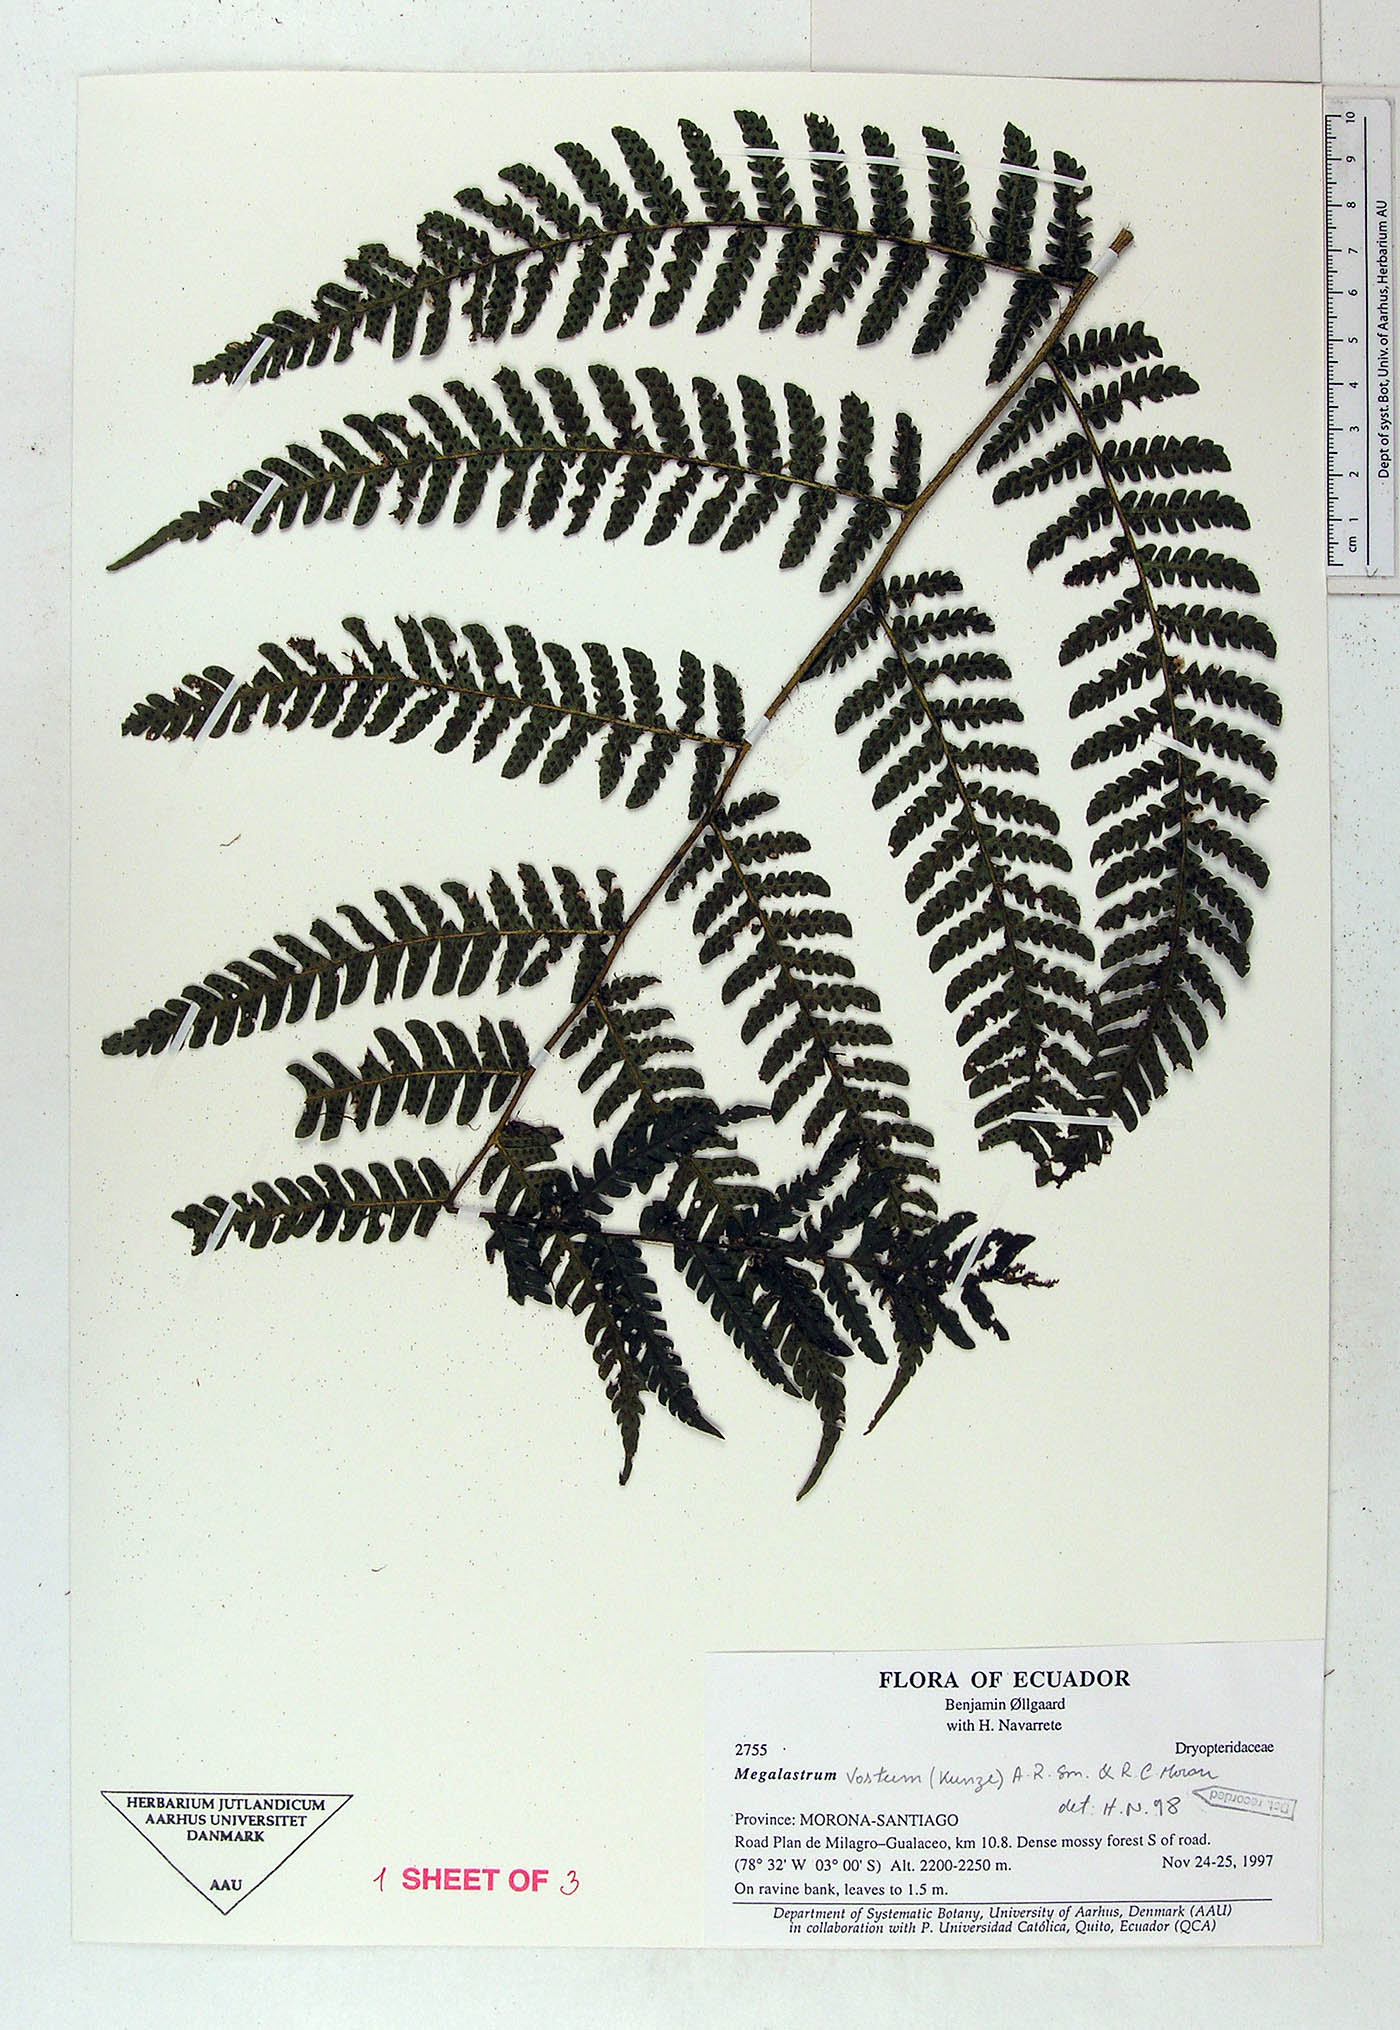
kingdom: Plantae
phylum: Tracheophyta
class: Polypodiopsida
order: Polypodiales
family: Dryopteridaceae
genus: Megalastrum
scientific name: Megalastrum alticola
